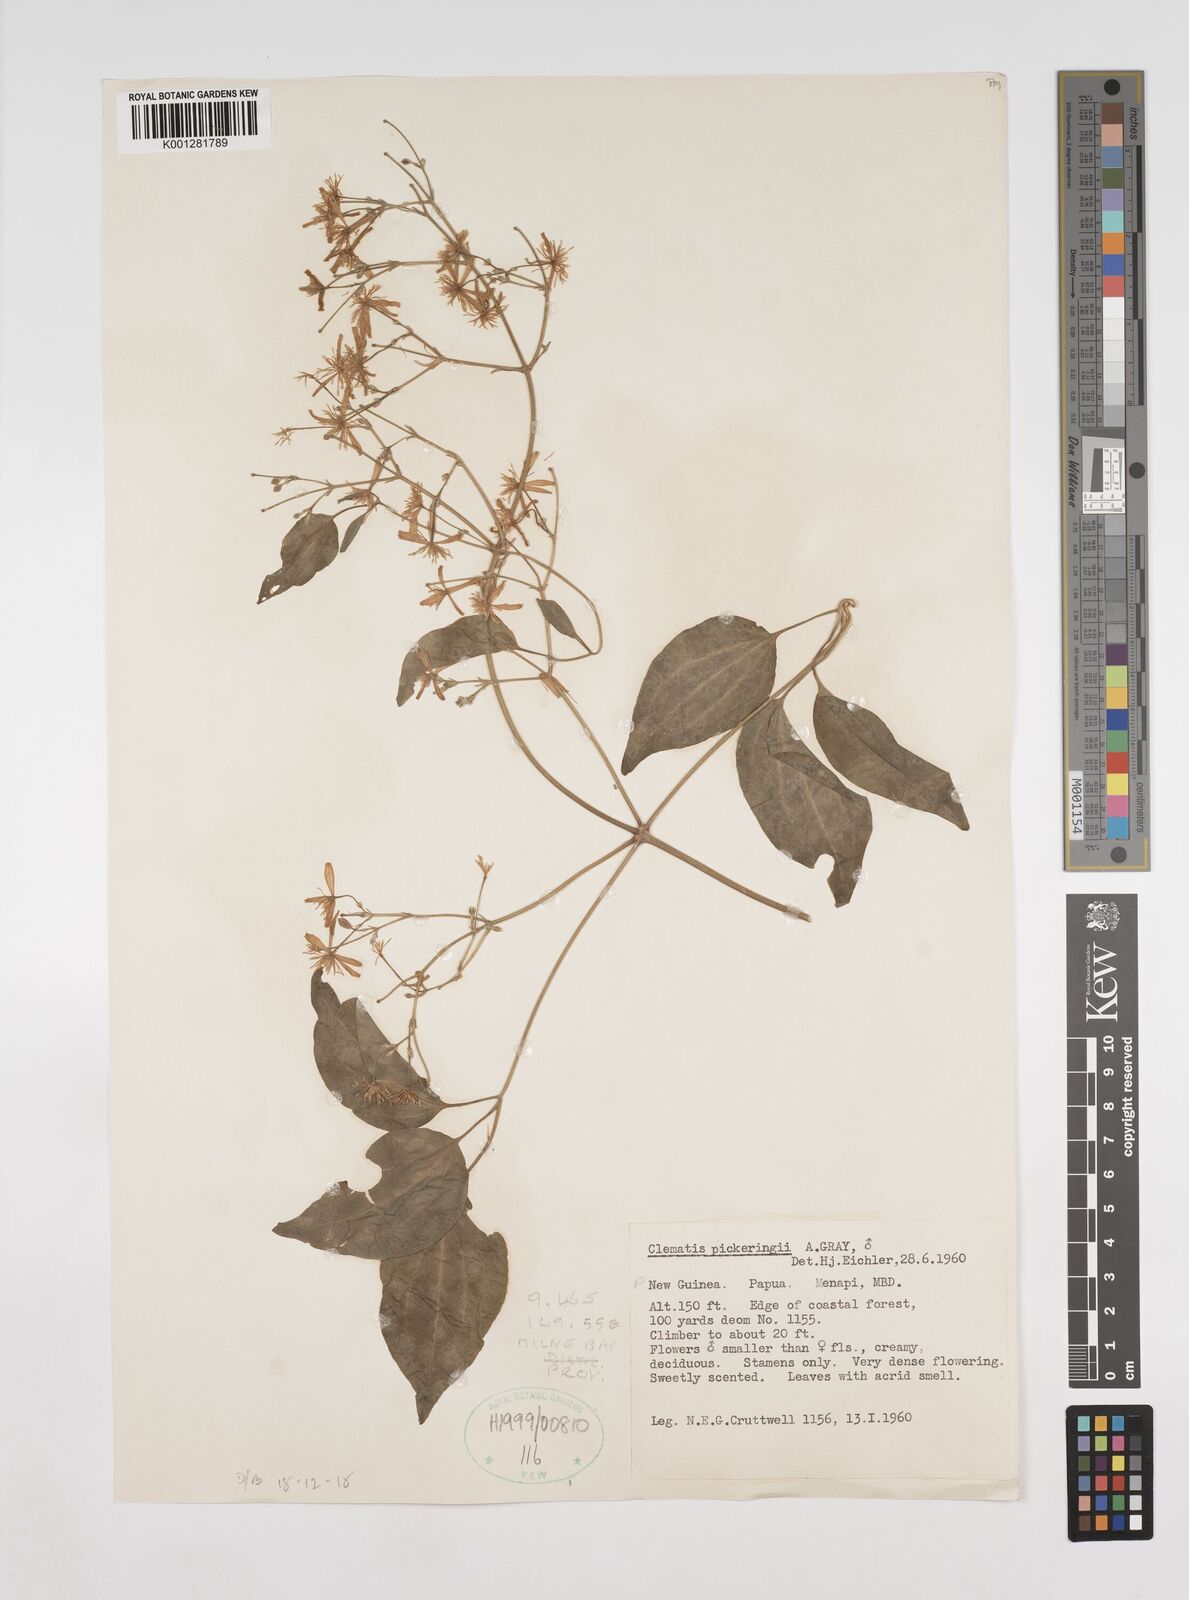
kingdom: Plantae
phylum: Tracheophyta
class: Magnoliopsida
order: Ranunculales
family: Ranunculaceae
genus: Clematis
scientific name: Clematis pickeringii
